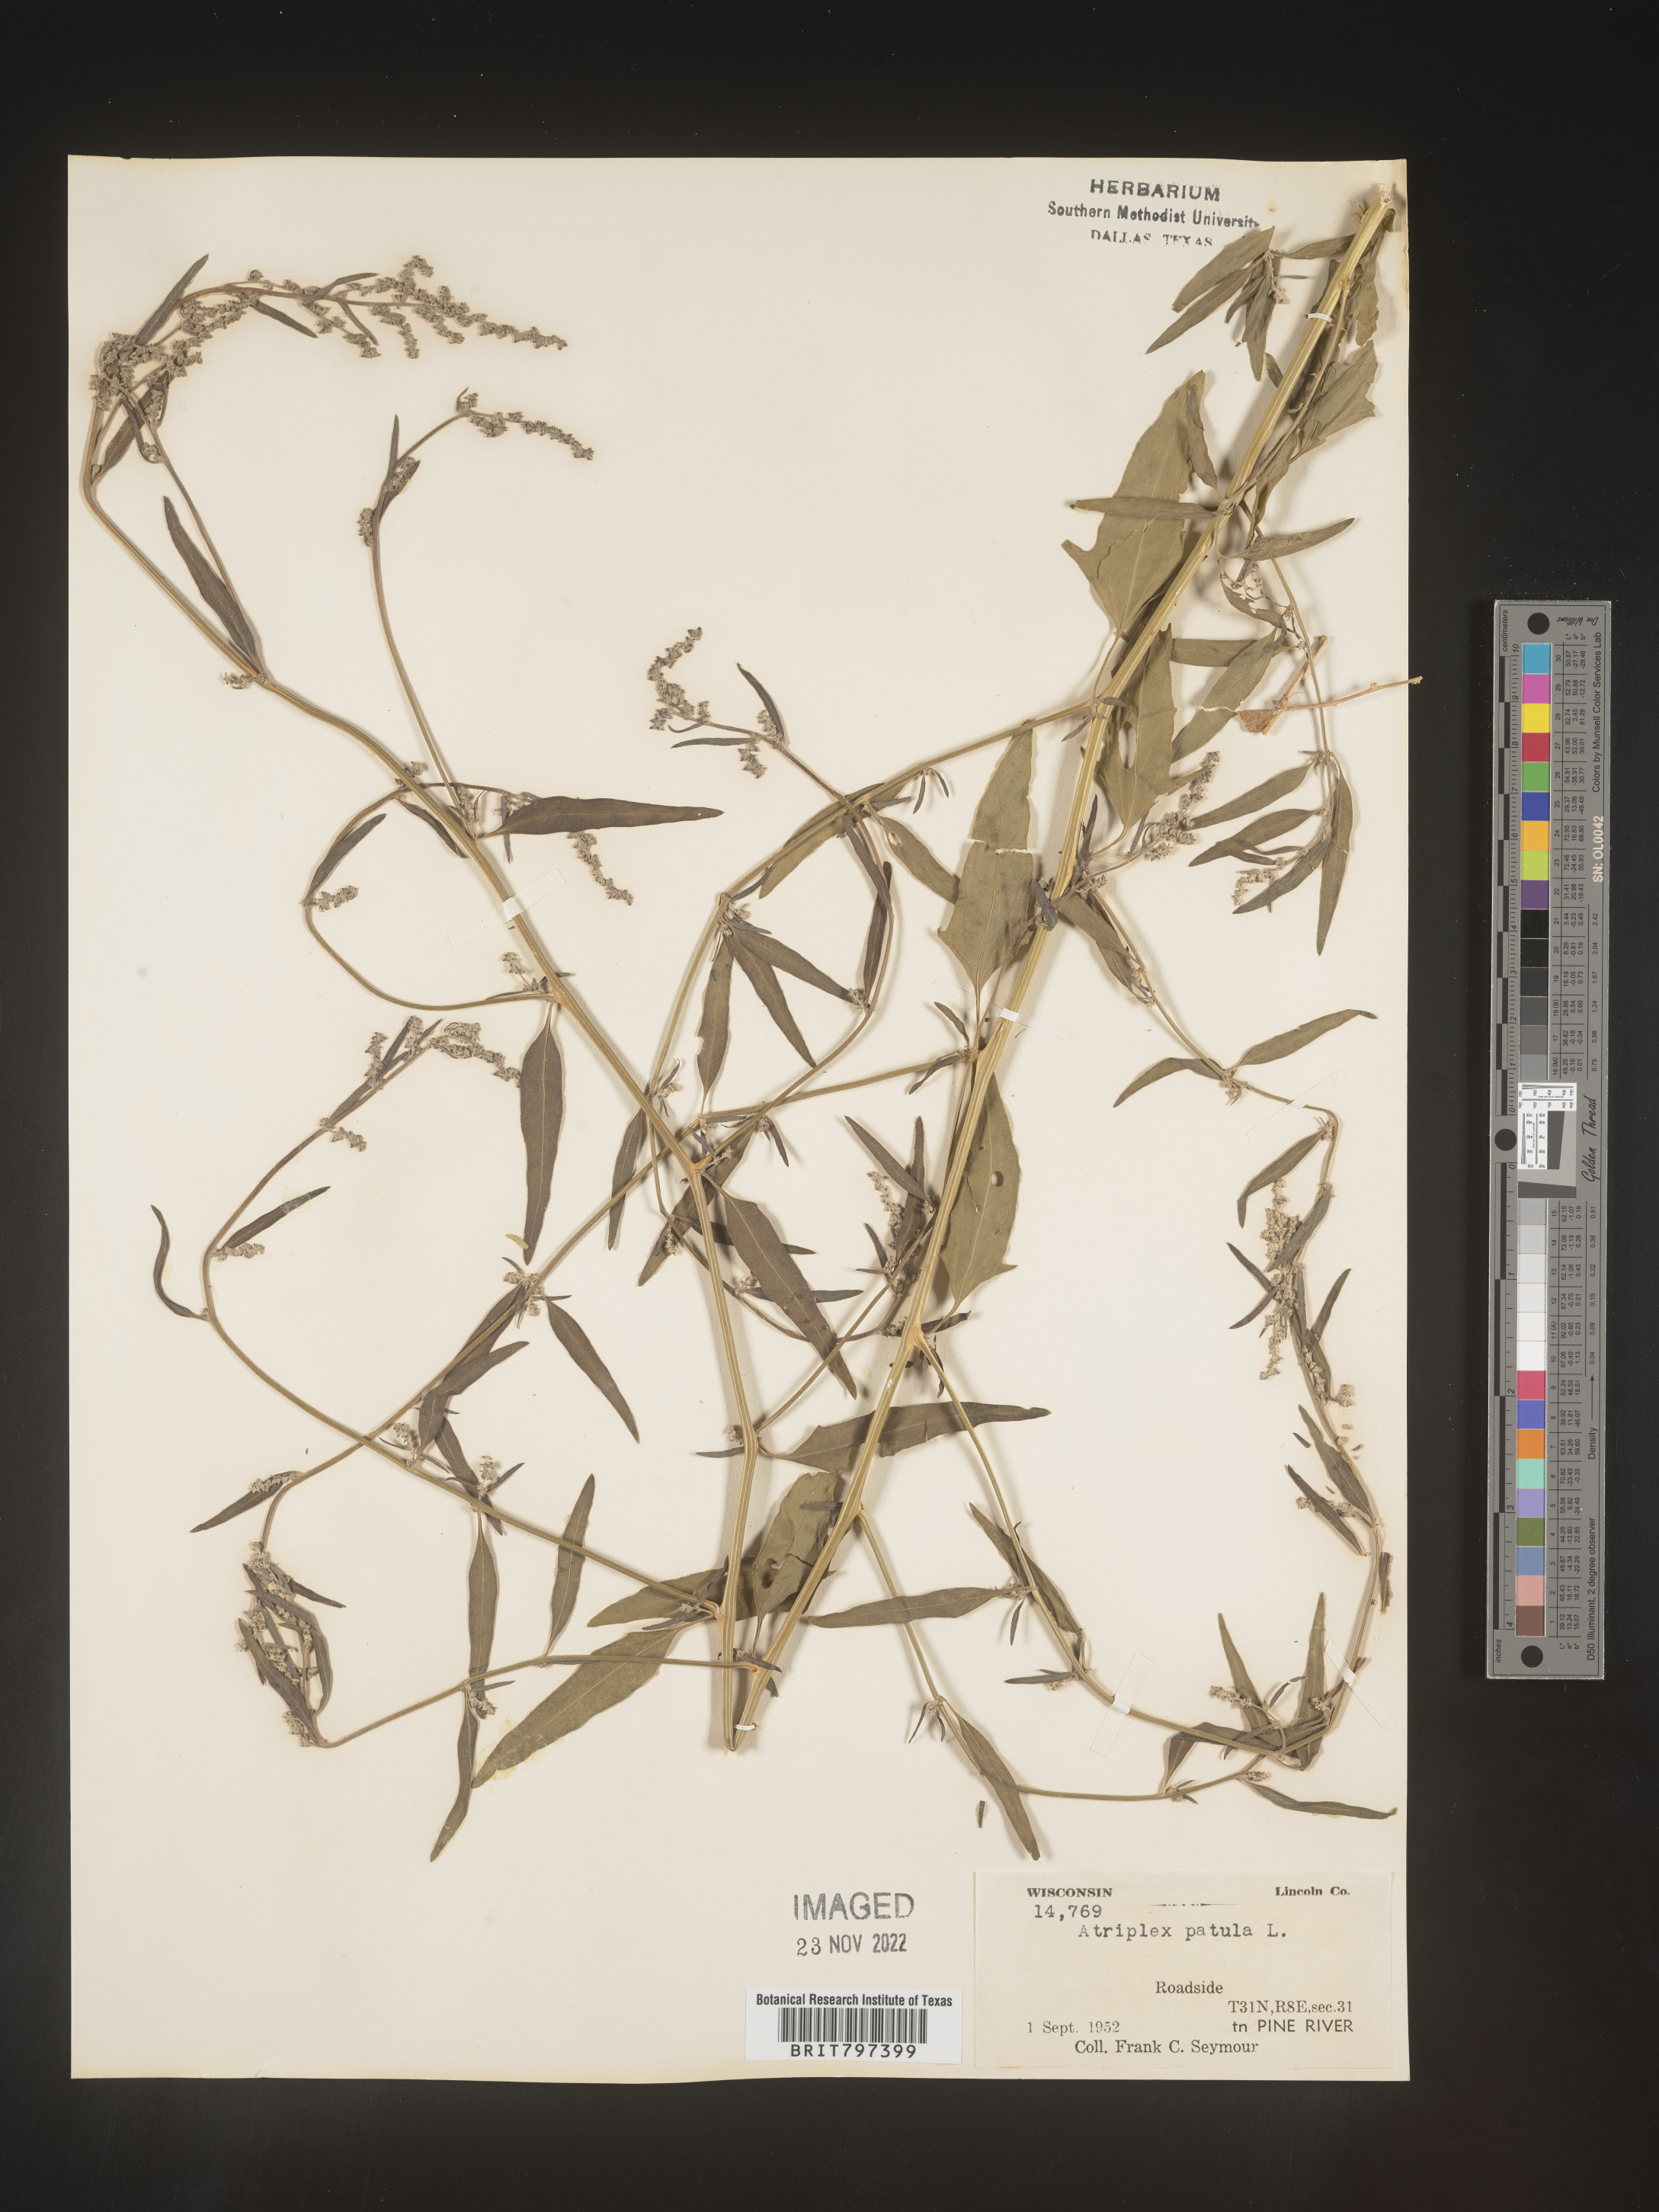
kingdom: Plantae
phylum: Tracheophyta
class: Magnoliopsida
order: Caryophyllales
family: Amaranthaceae
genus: Atriplex
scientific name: Atriplex prostrata
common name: Spear-leaved orache
